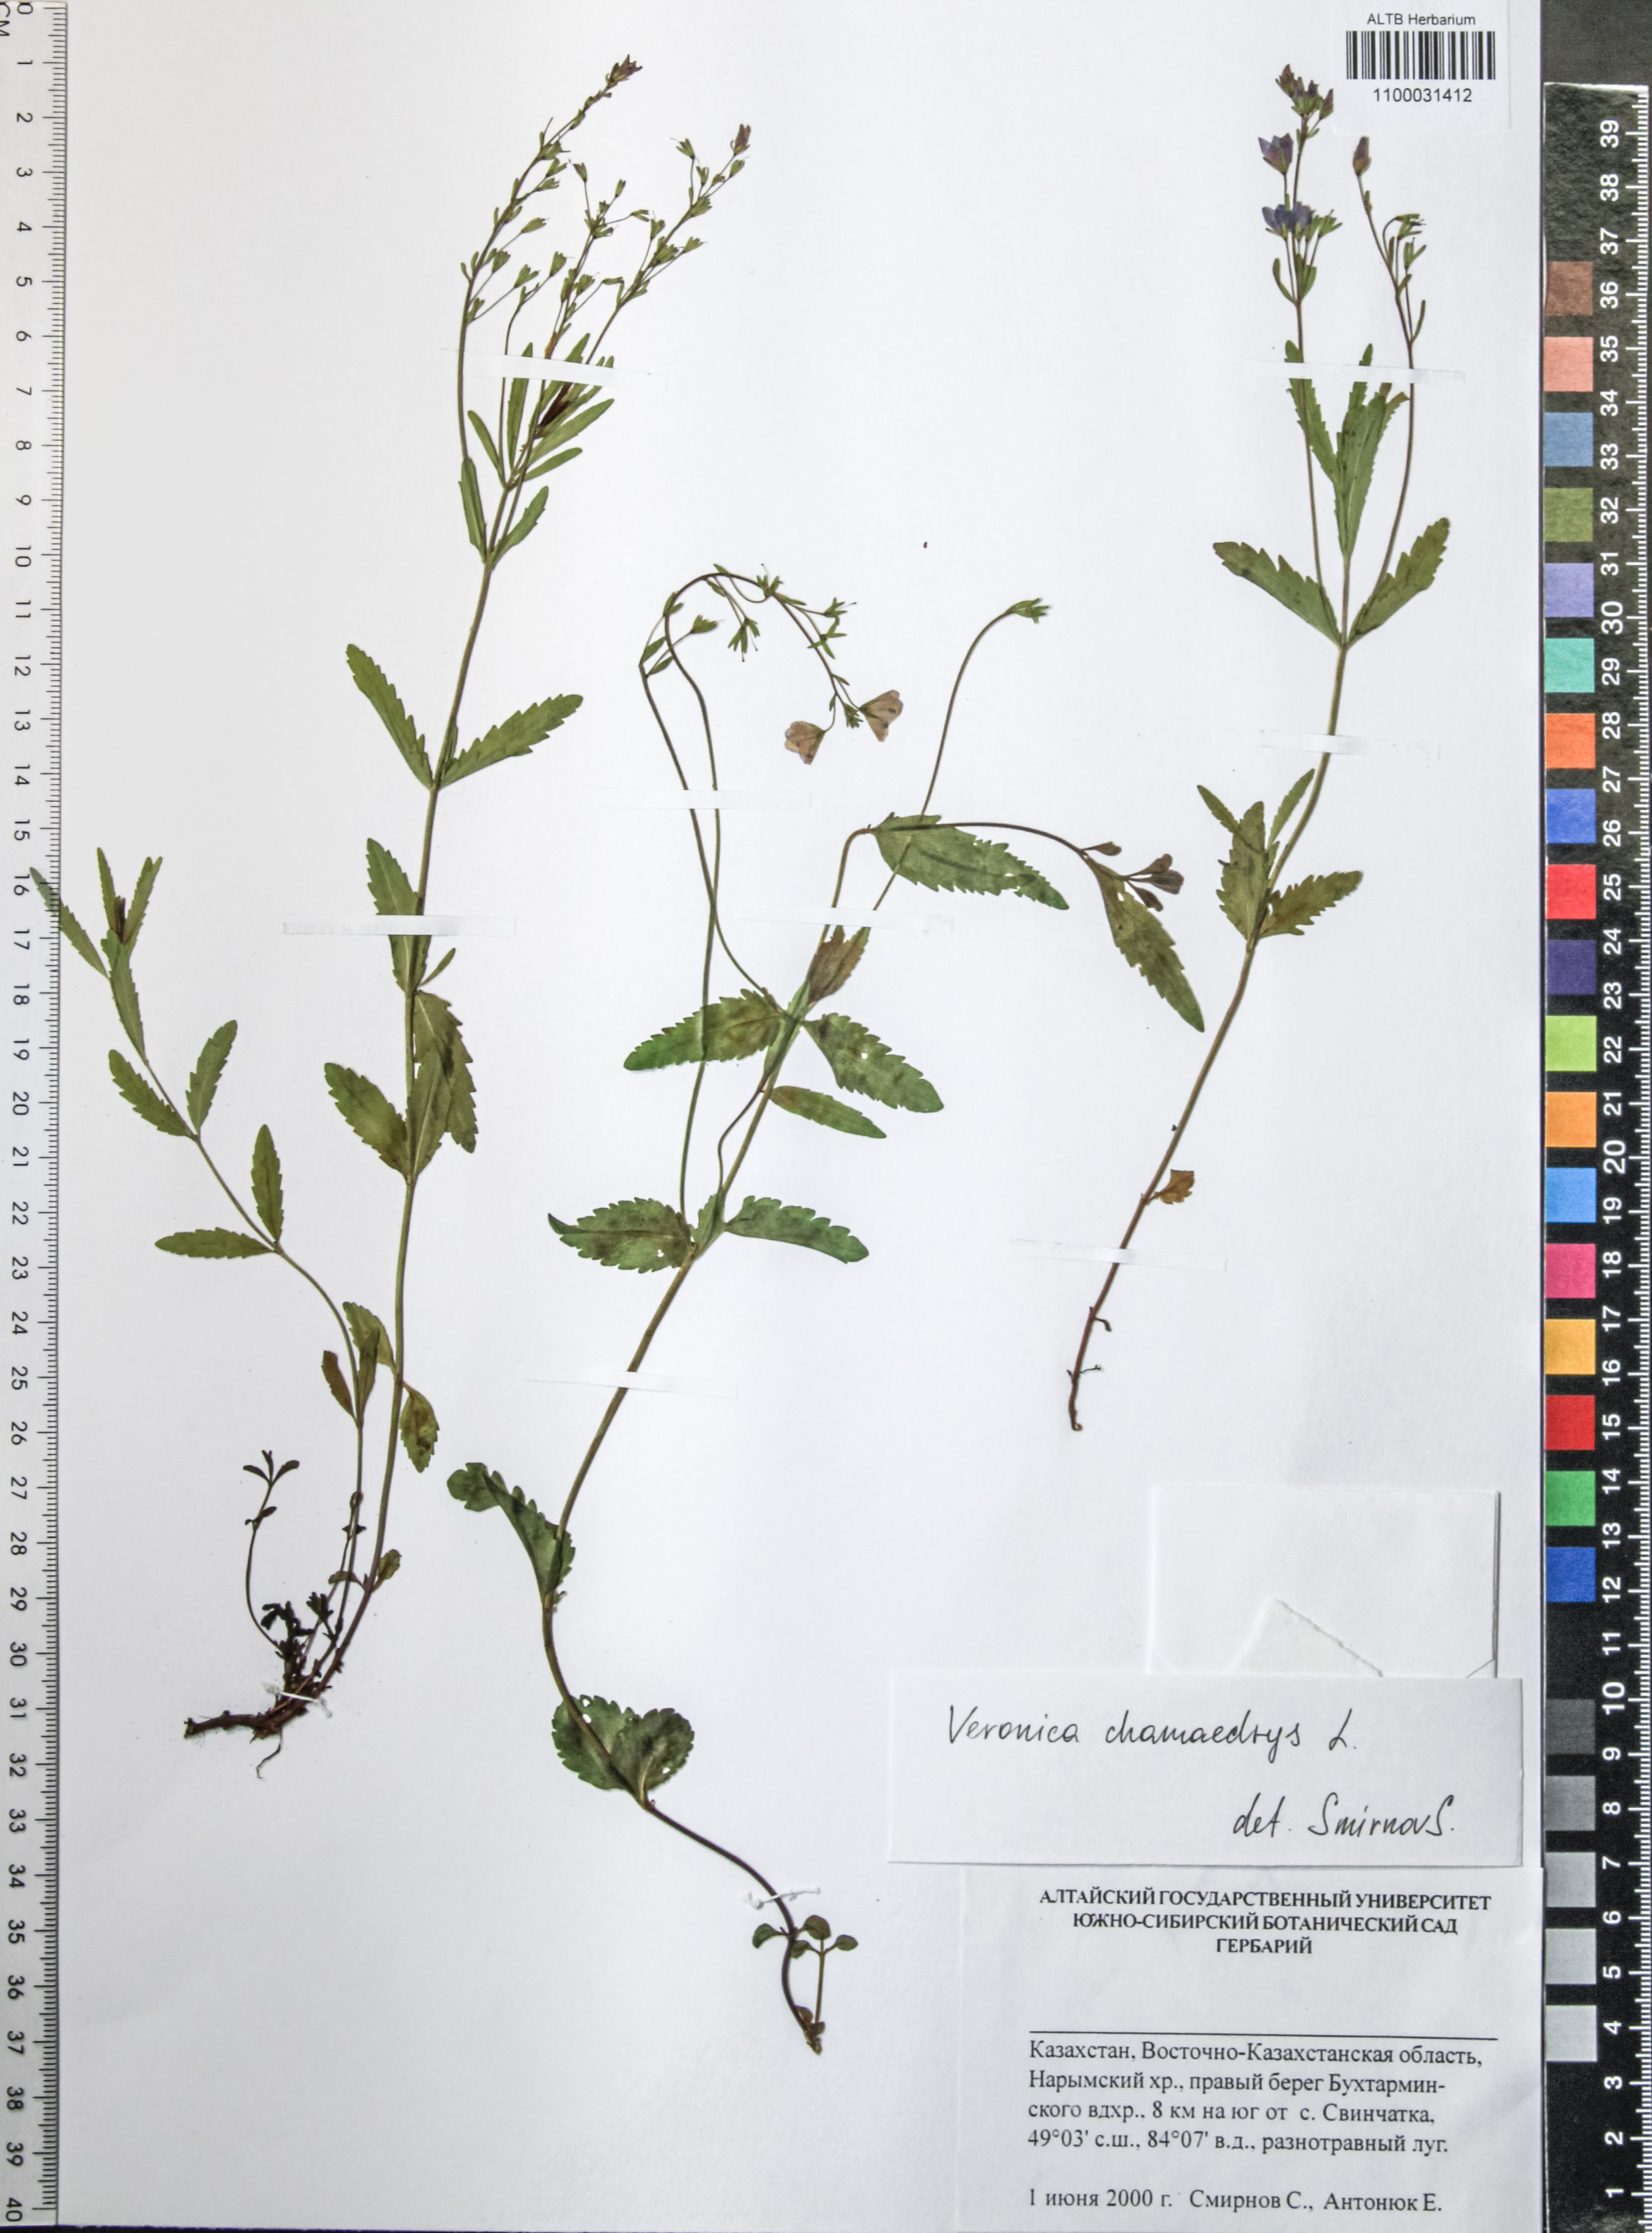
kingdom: Plantae
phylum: Tracheophyta
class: Magnoliopsida
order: Lamiales
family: Plantaginaceae
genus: Veronica
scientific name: Veronica chamaedrys
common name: Germander speedwell
